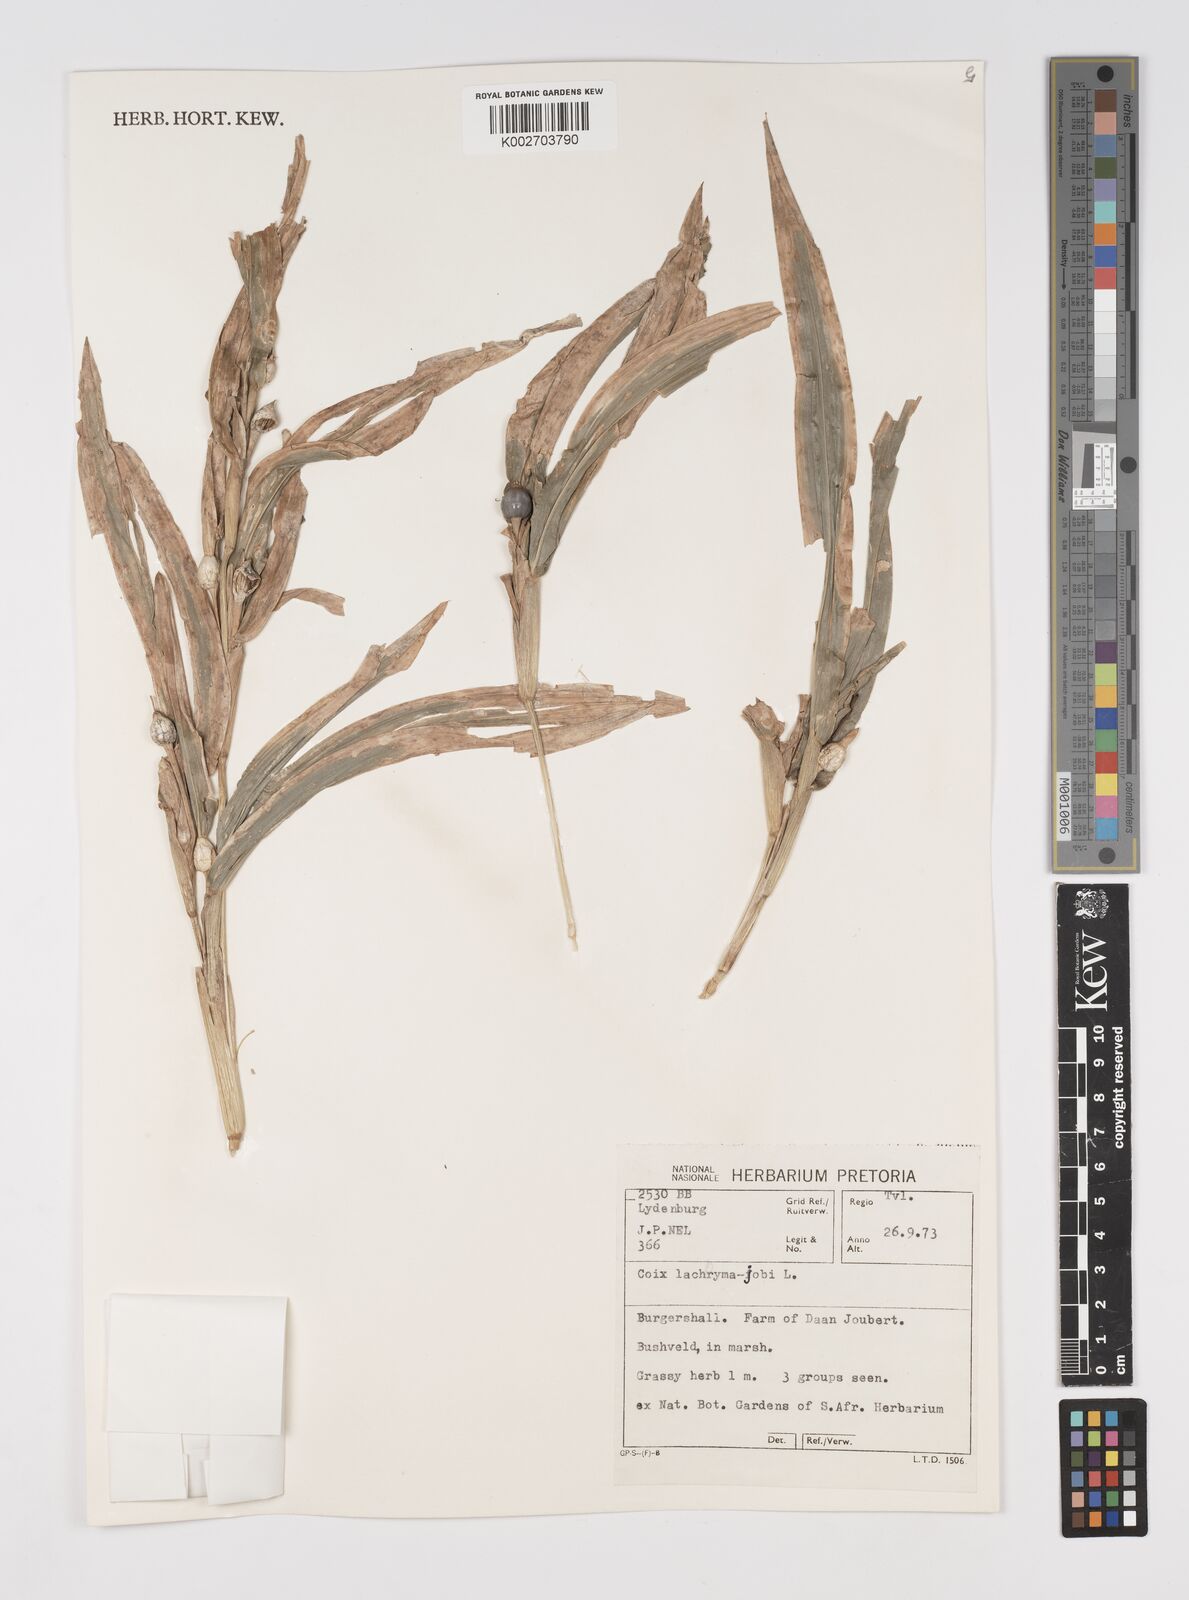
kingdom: Plantae
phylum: Tracheophyta
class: Liliopsida
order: Poales
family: Poaceae
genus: Coix
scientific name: Coix lacryma-jobi
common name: Job's tears
